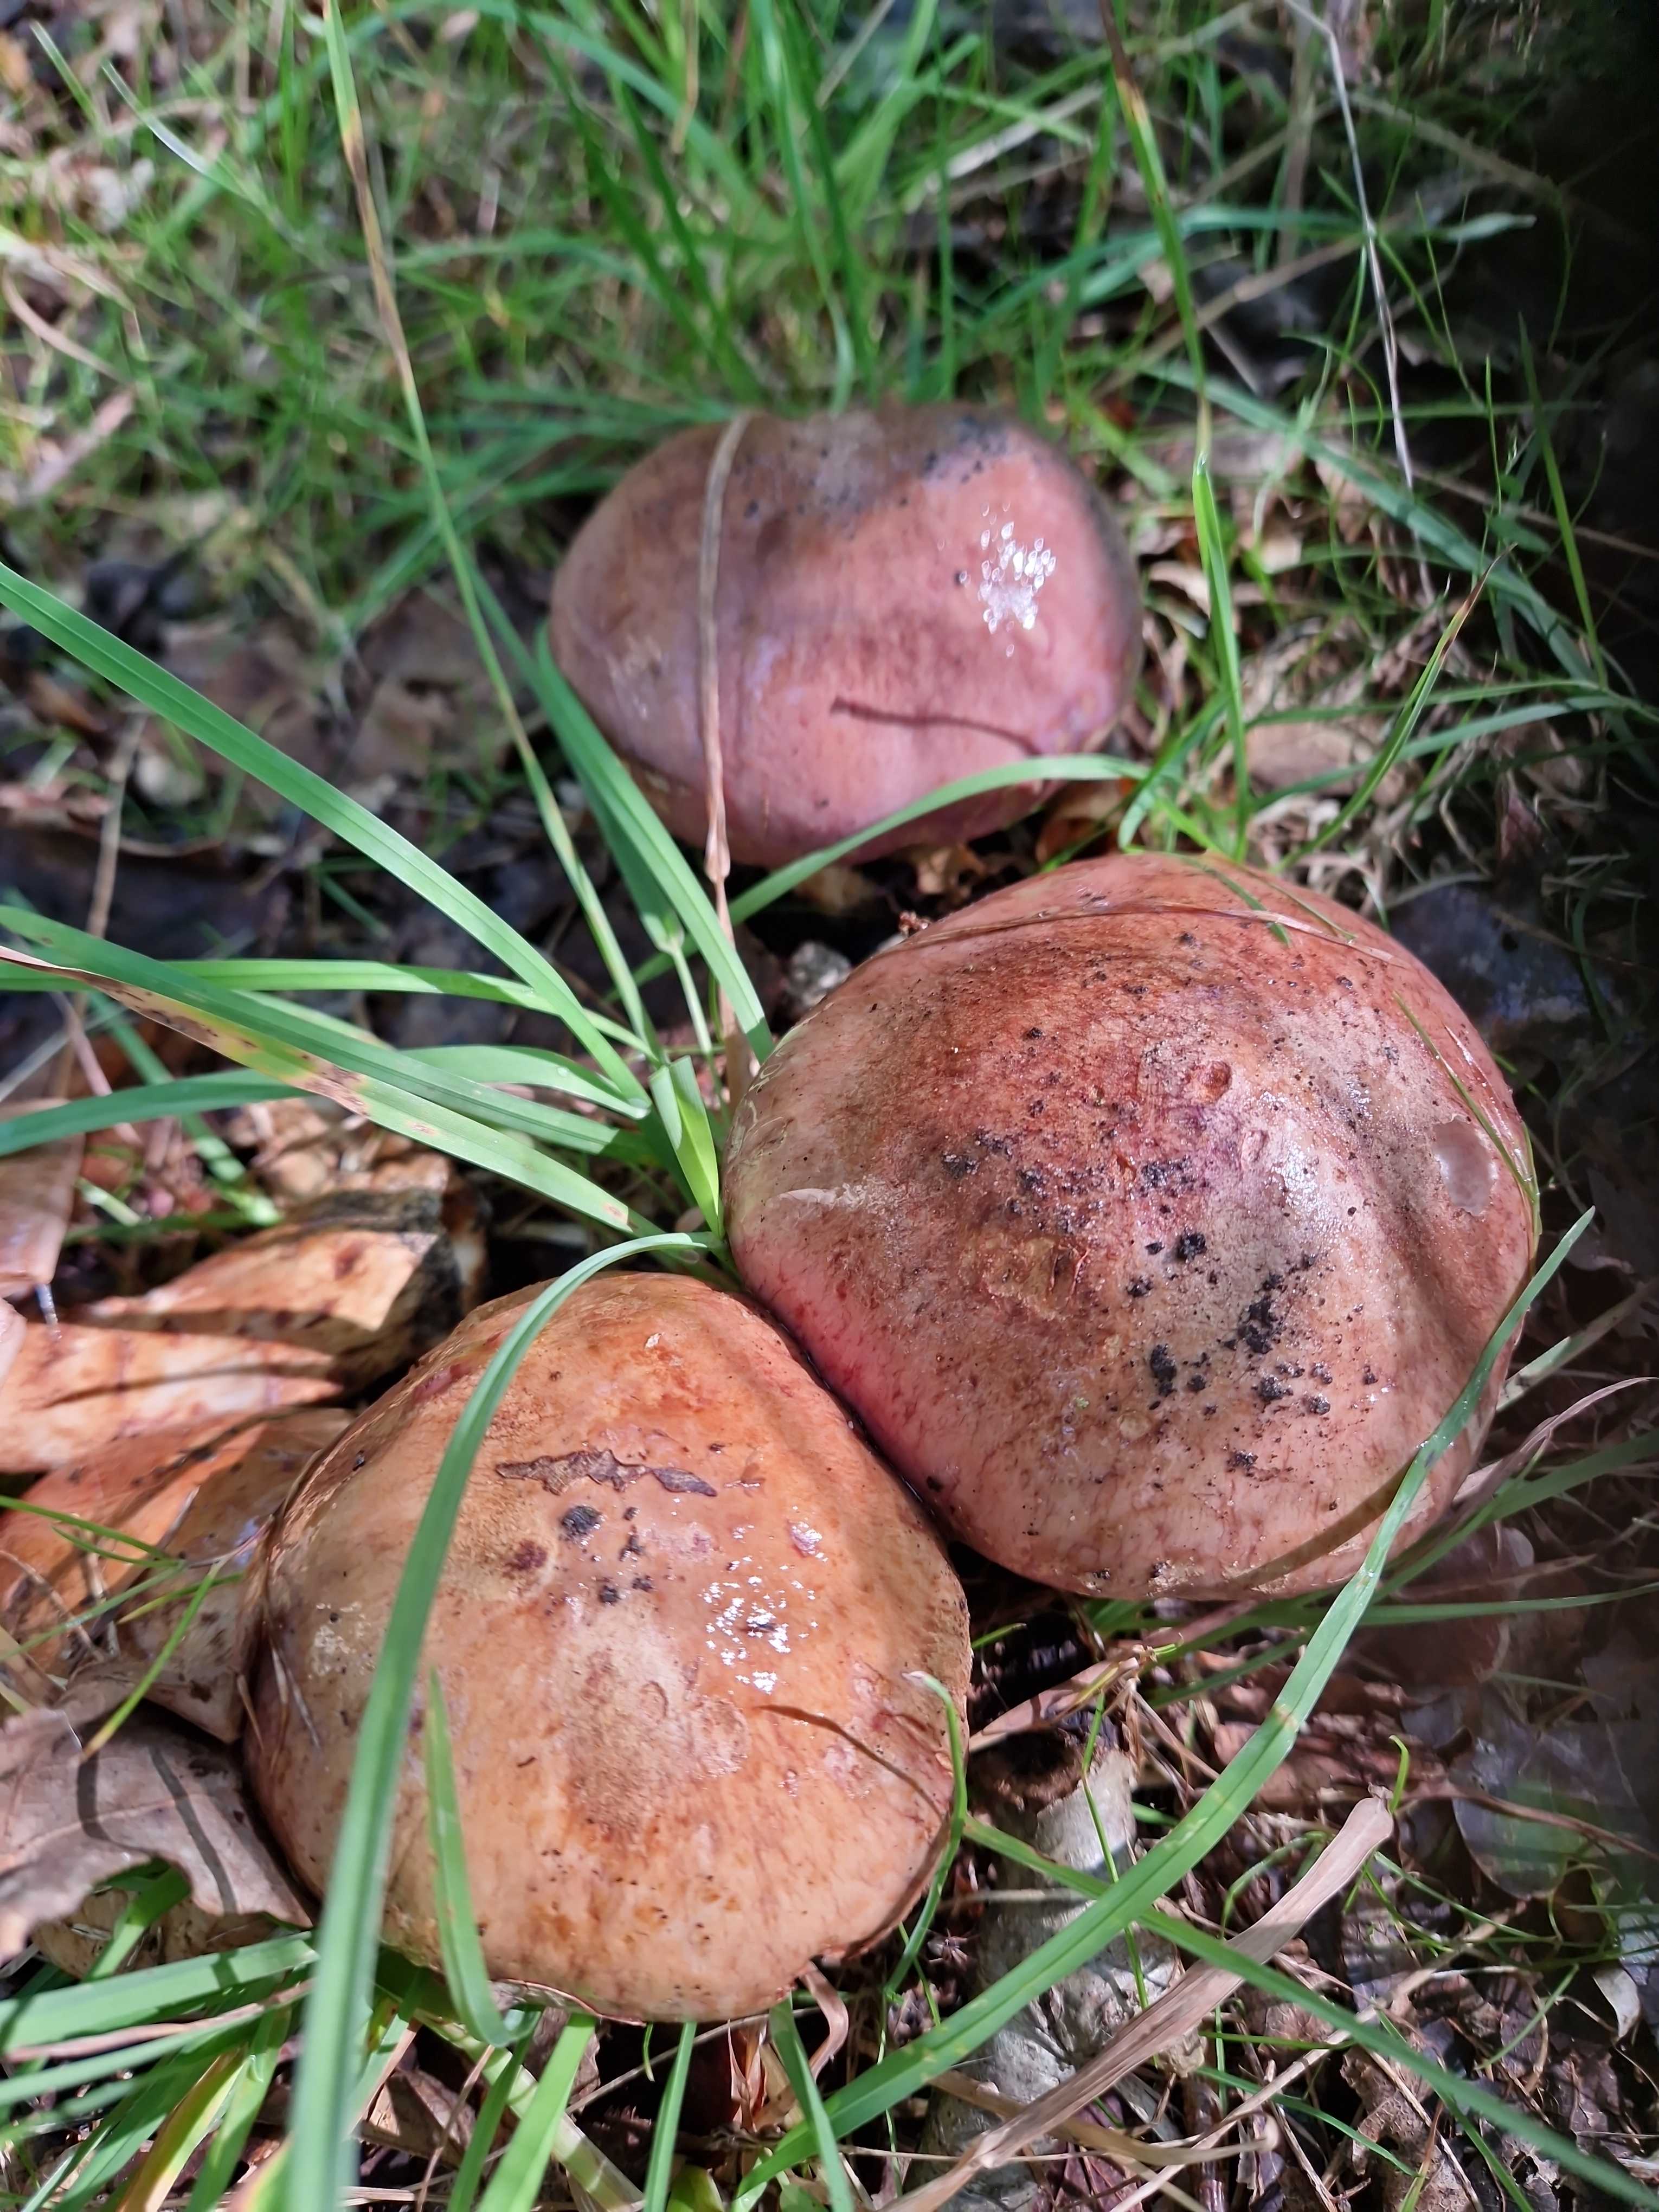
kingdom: Fungi
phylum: Basidiomycota
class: Agaricomycetes
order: Agaricales
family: Cortinariaceae
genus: Phlegmacium
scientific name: Phlegmacium balteatocumatile
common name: violettrådet slørhat
